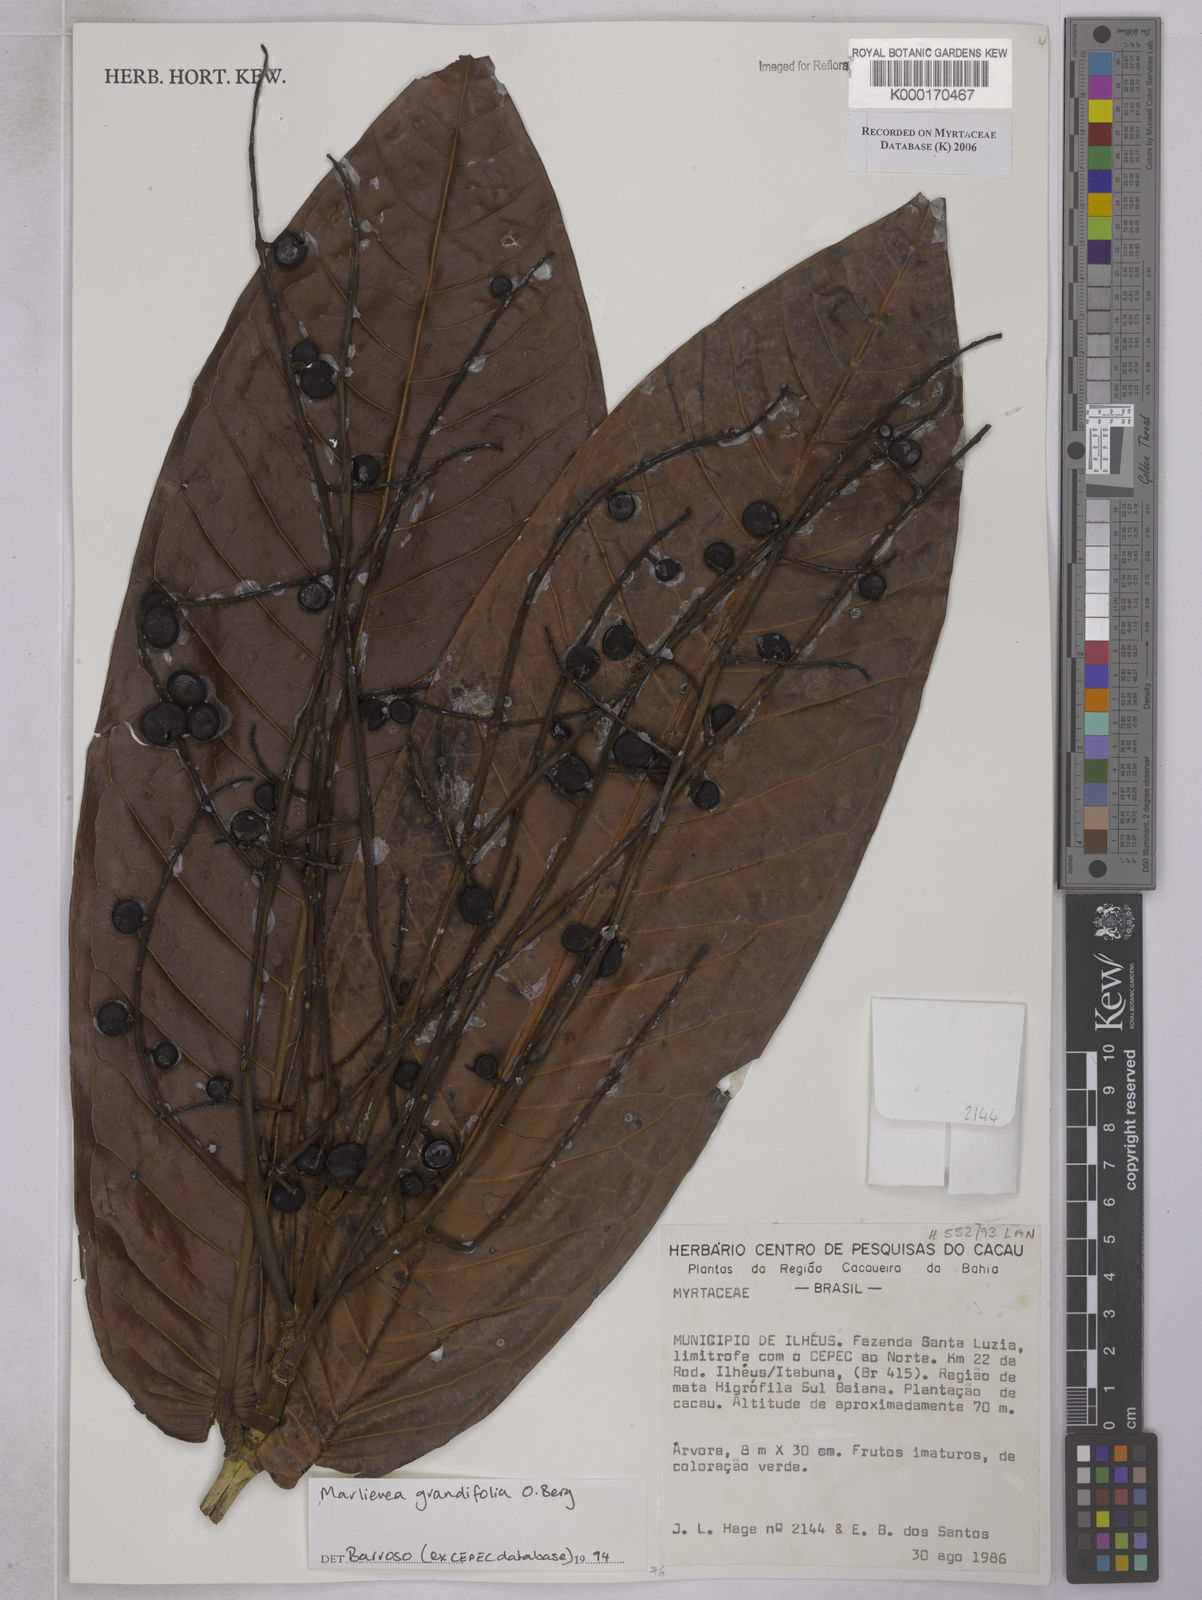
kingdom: Plantae
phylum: Tracheophyta
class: Magnoliopsida
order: Myrtales
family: Myrtaceae
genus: Marlierea
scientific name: Marlierea
